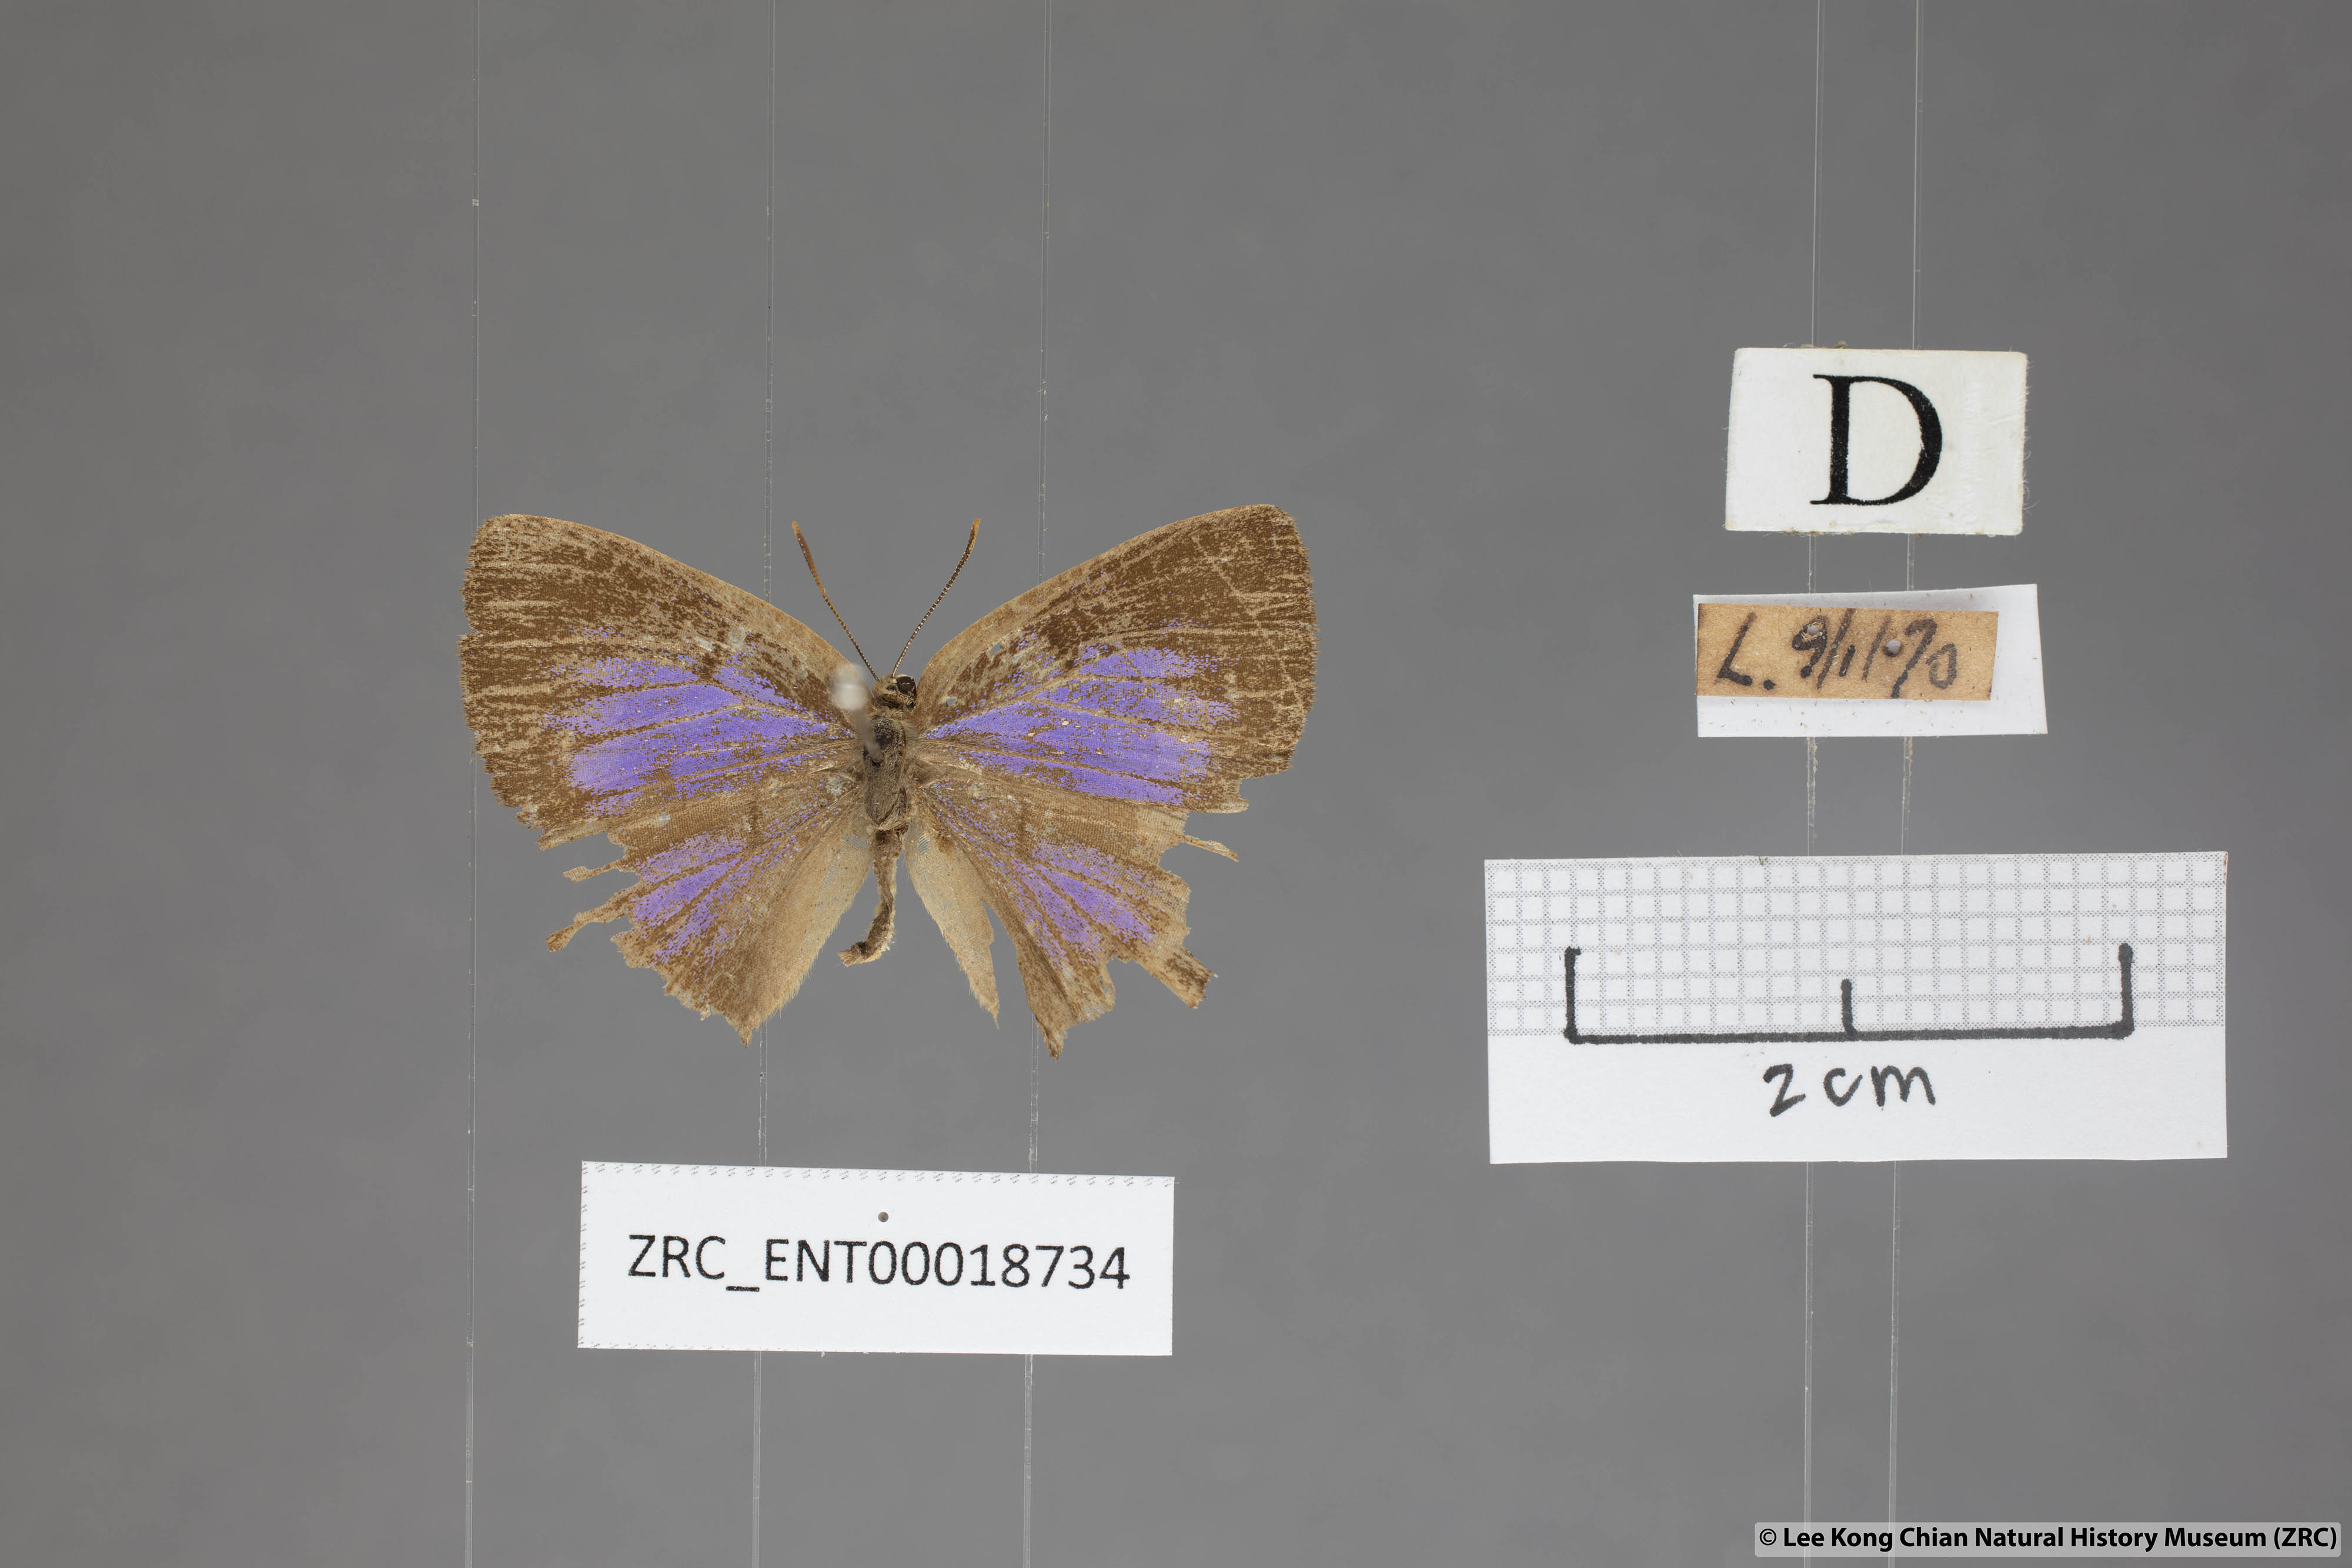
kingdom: Animalia
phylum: Arthropoda
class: Insecta
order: Lepidoptera
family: Lycaenidae
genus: Deramas
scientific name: Deramas livena
